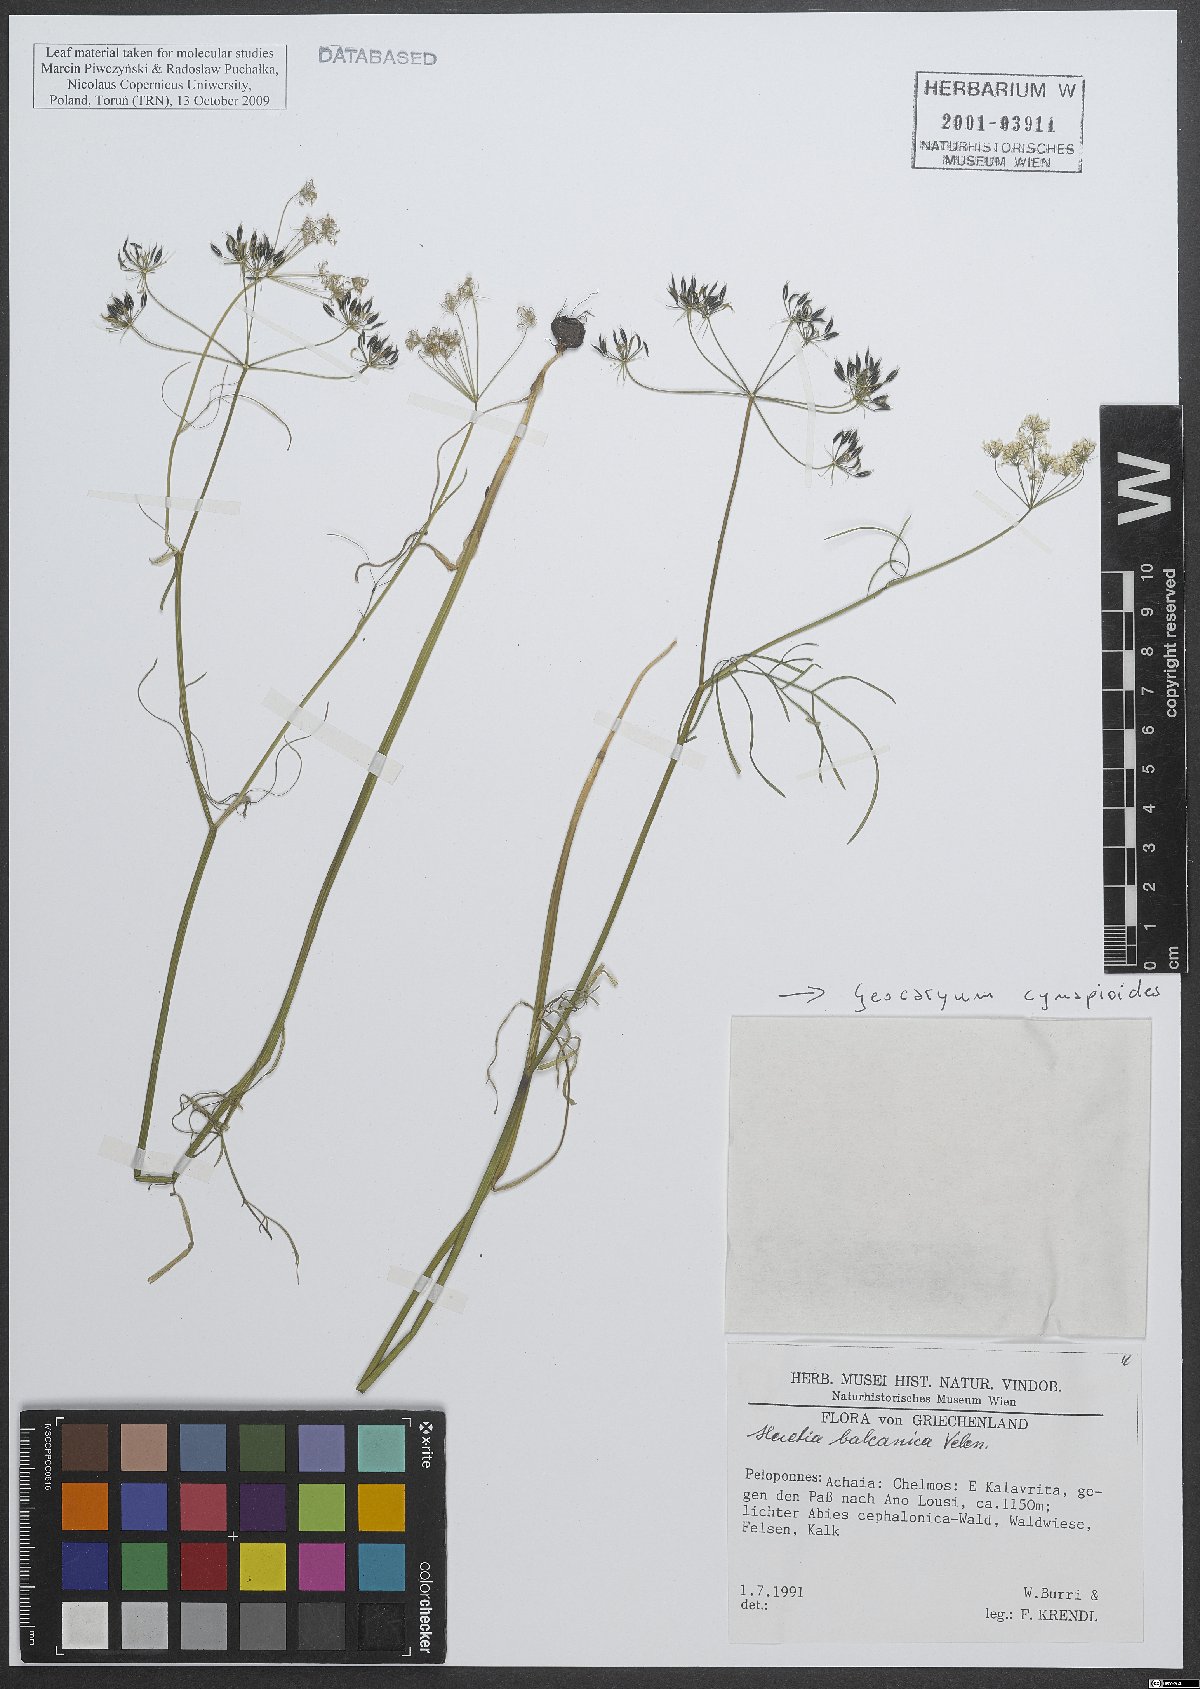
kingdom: Plantae
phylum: Tracheophyta
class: Magnoliopsida
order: Apiales
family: Apiaceae
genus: Geocaryum
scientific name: Geocaryum cynapioides
